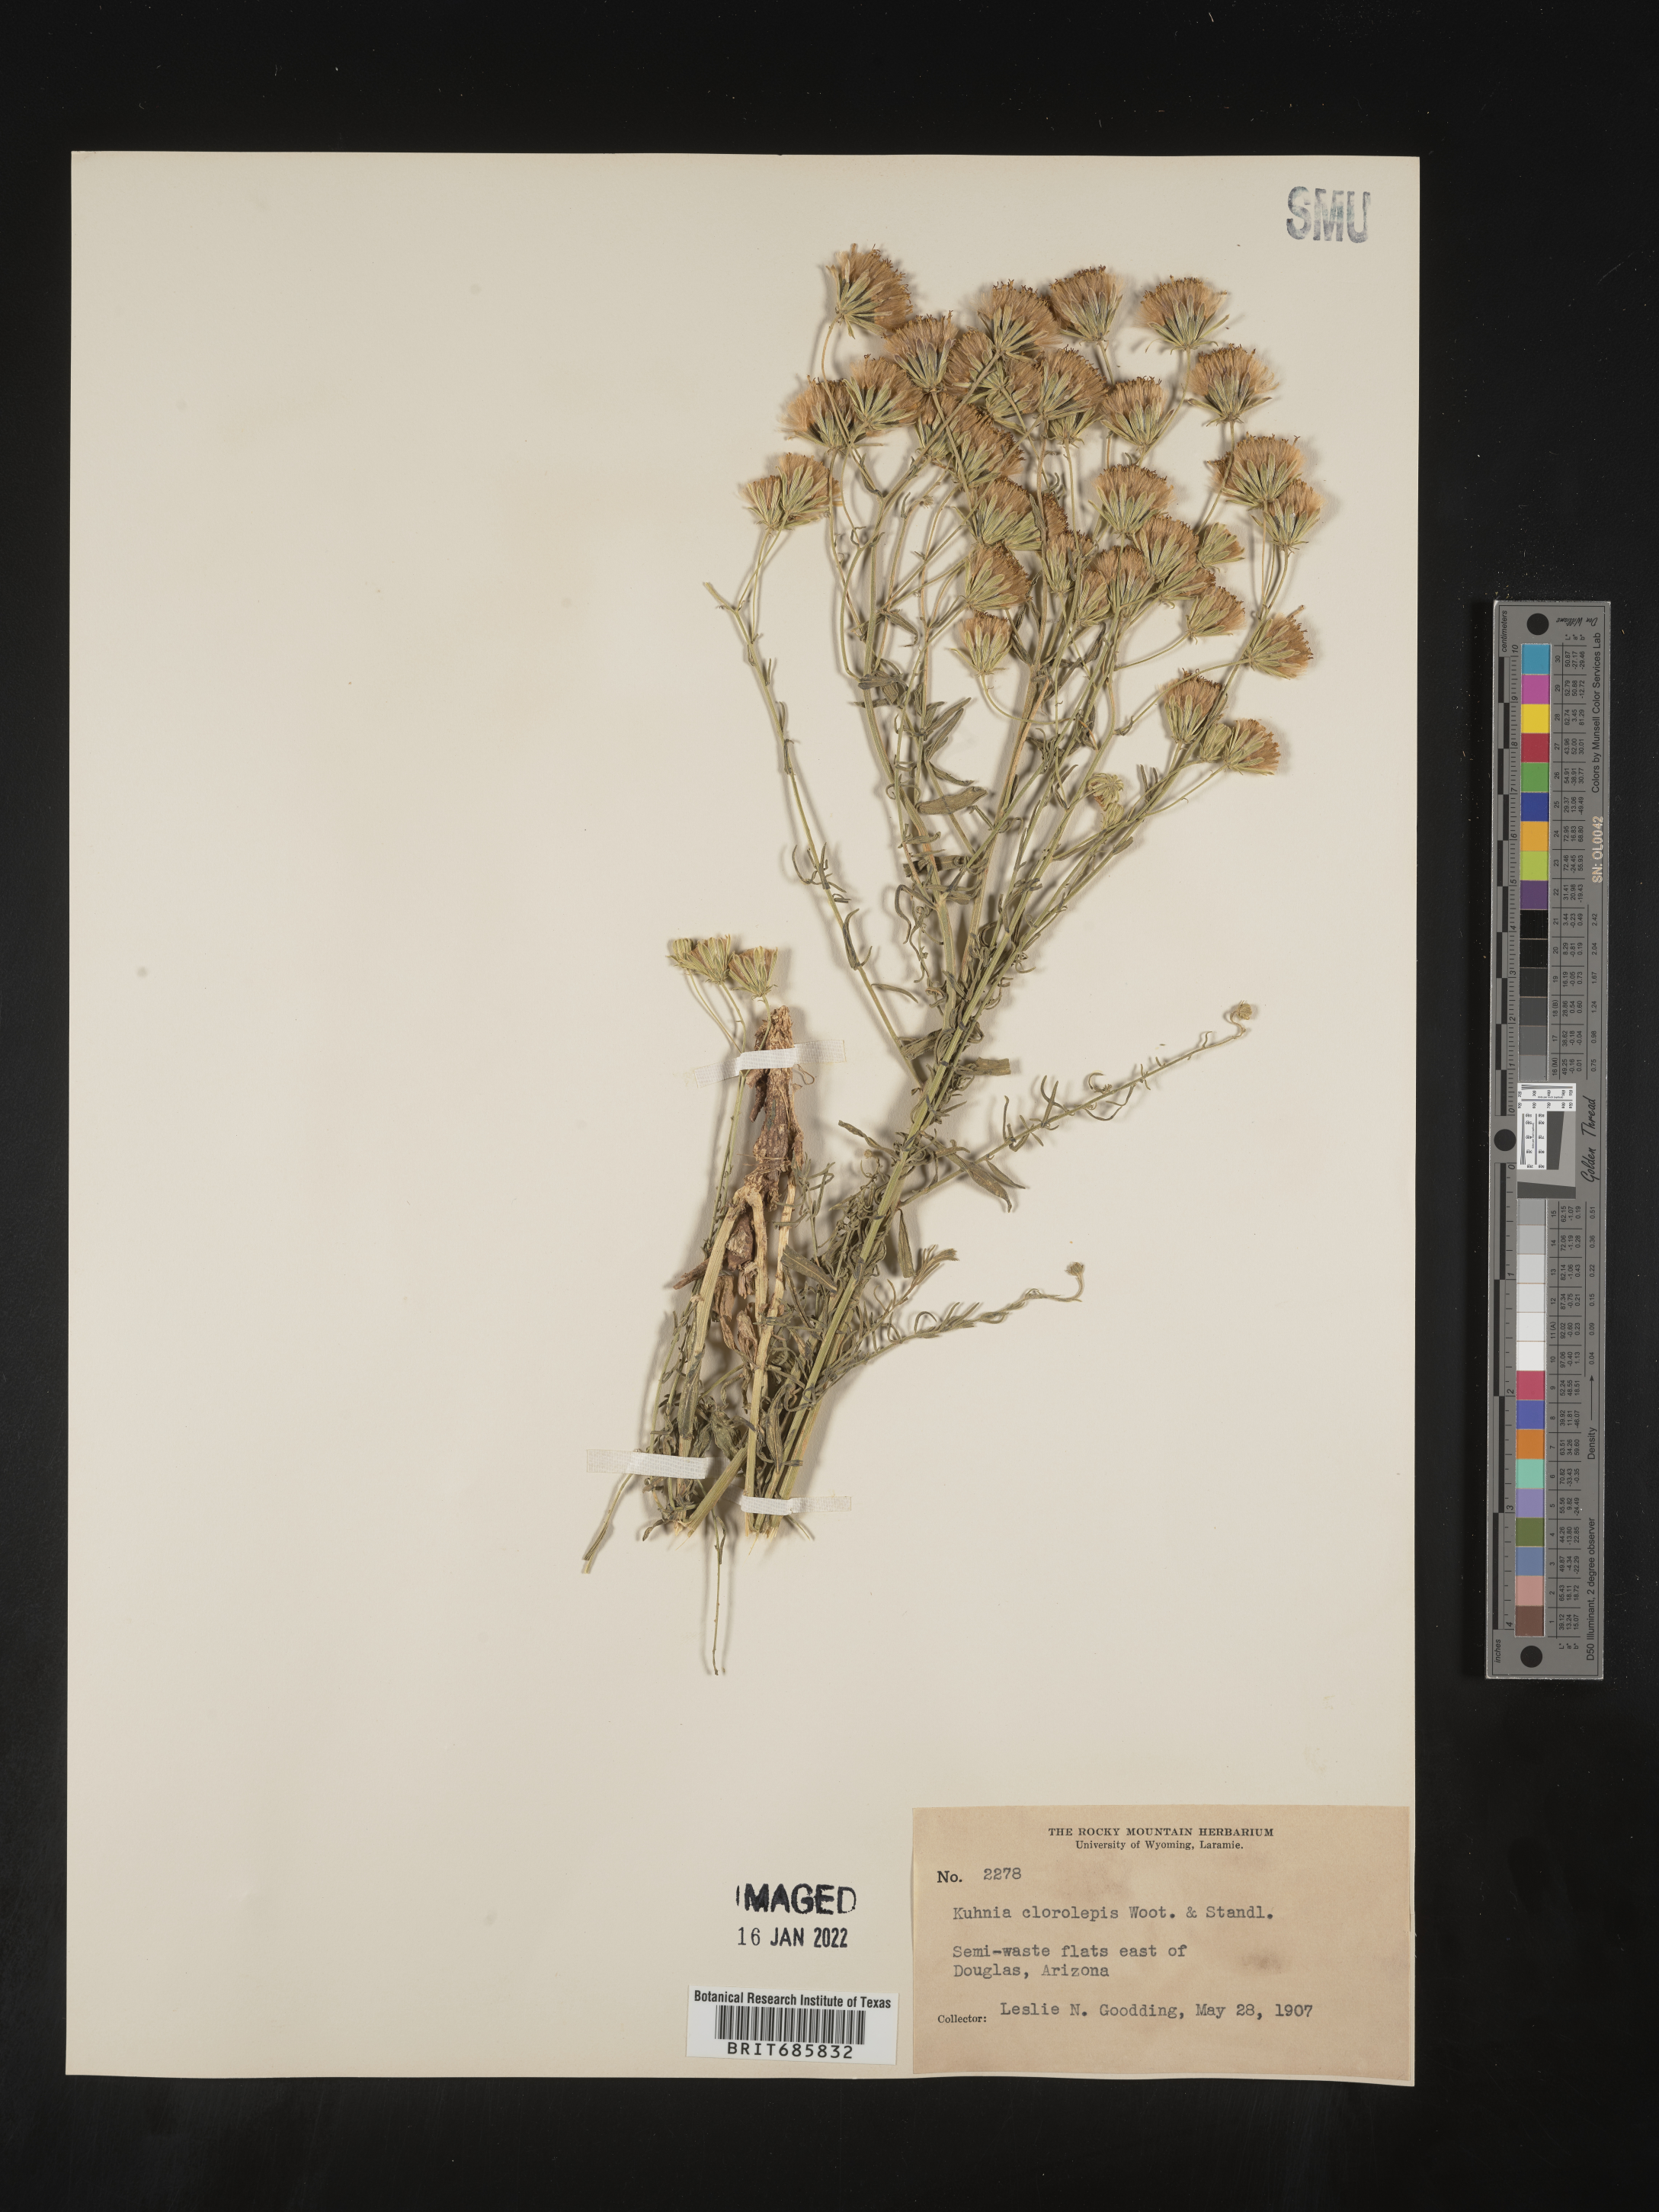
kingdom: Plantae
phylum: Tracheophyta
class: Magnoliopsida
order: Asterales
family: Asteraceae
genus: Brickellia
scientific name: Brickellia leptophylla
